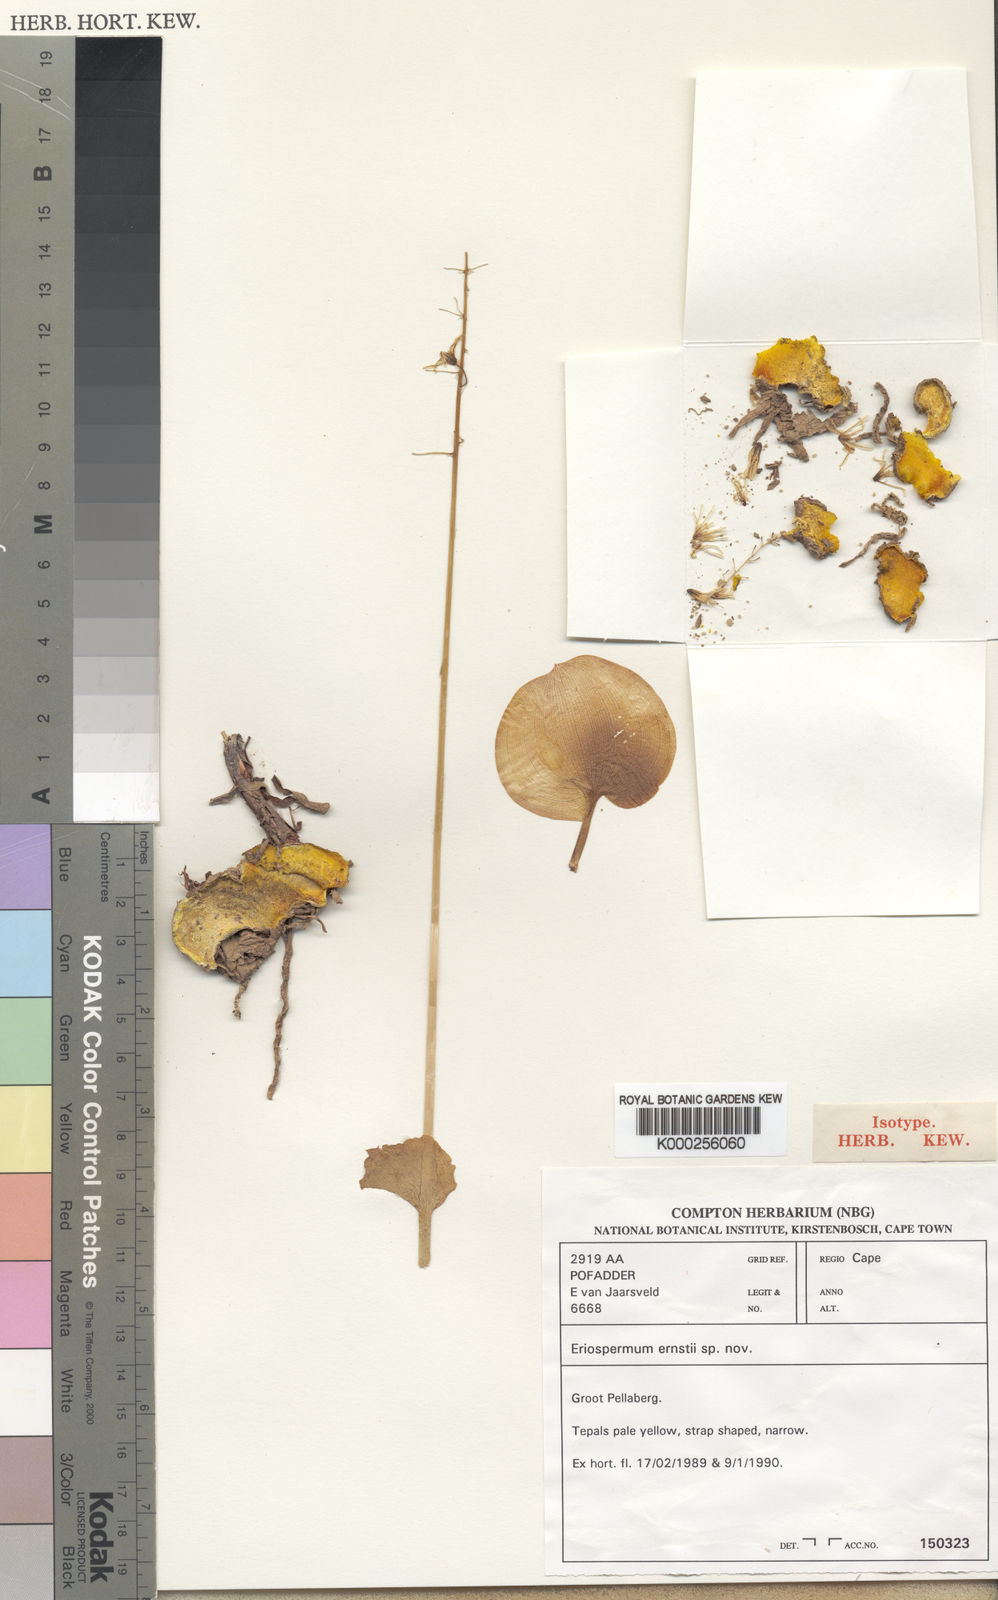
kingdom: Plantae
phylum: Tracheophyta
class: Liliopsida
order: Asparagales
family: Asparagaceae
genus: Eriospermum
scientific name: Eriospermum ernstii
